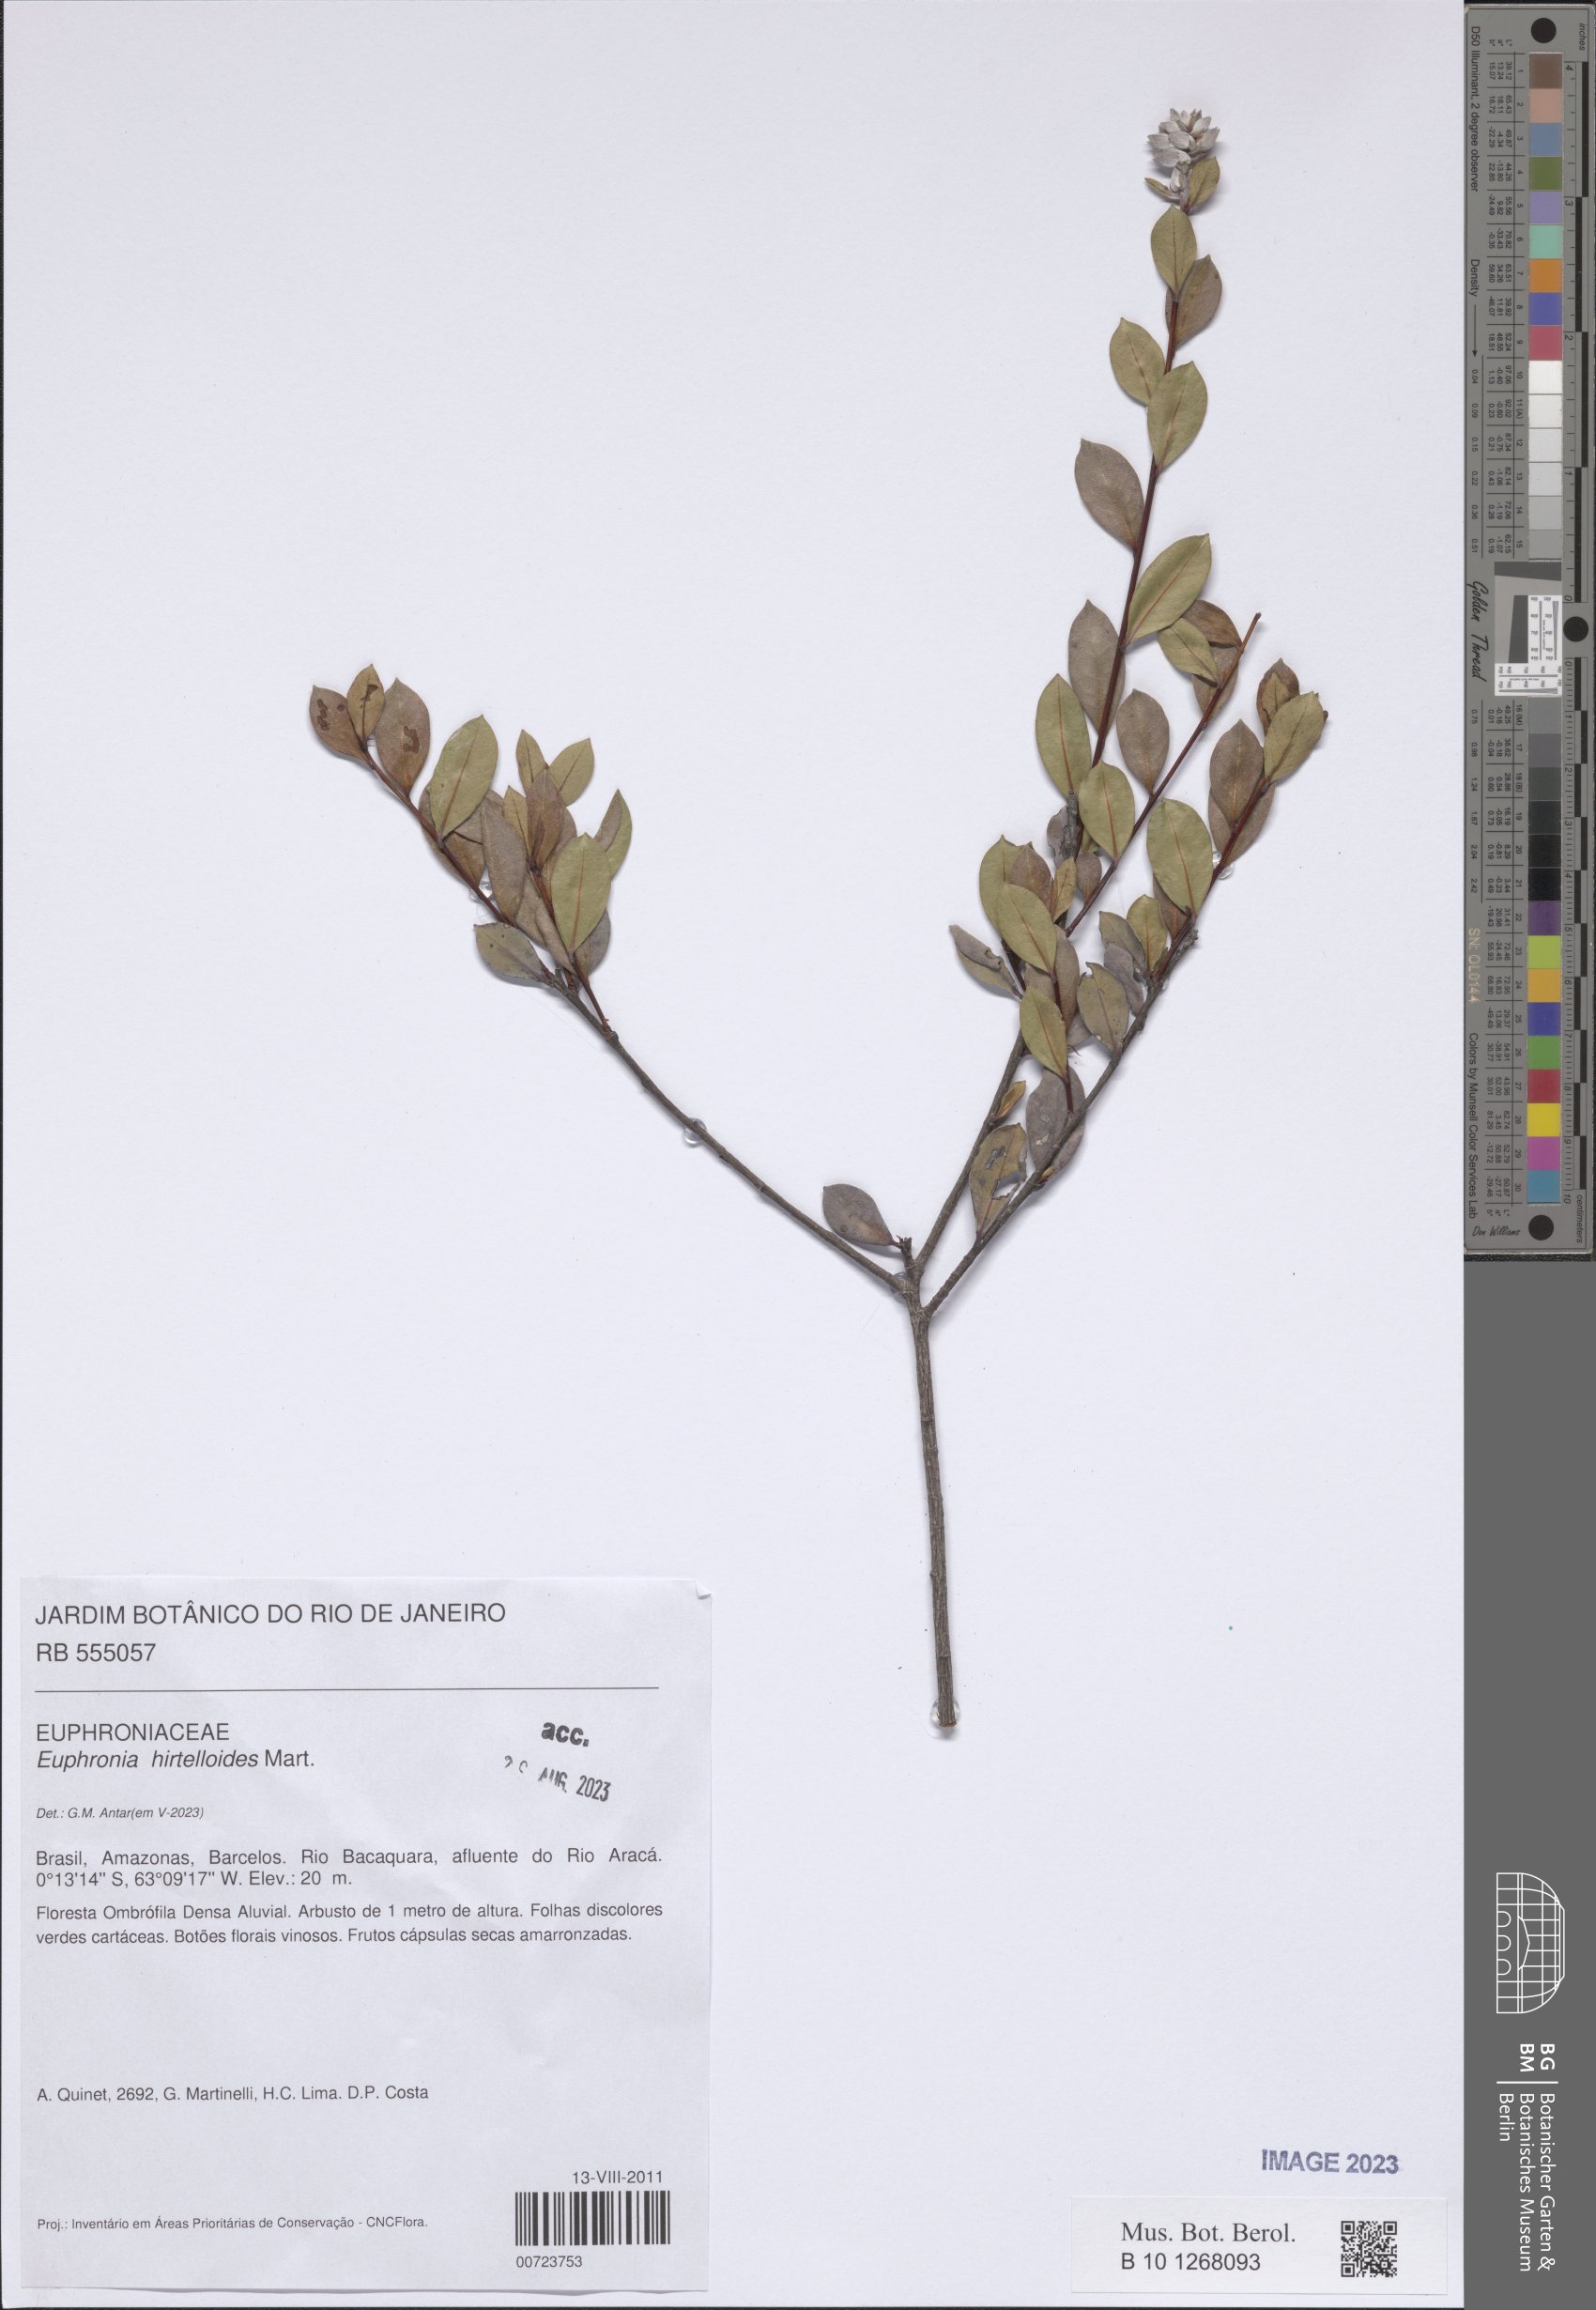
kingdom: Plantae
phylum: Tracheophyta
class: Magnoliopsida
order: Malpighiales
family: Euphroniaceae
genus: Euphronia
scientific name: Euphronia hirtelloides
